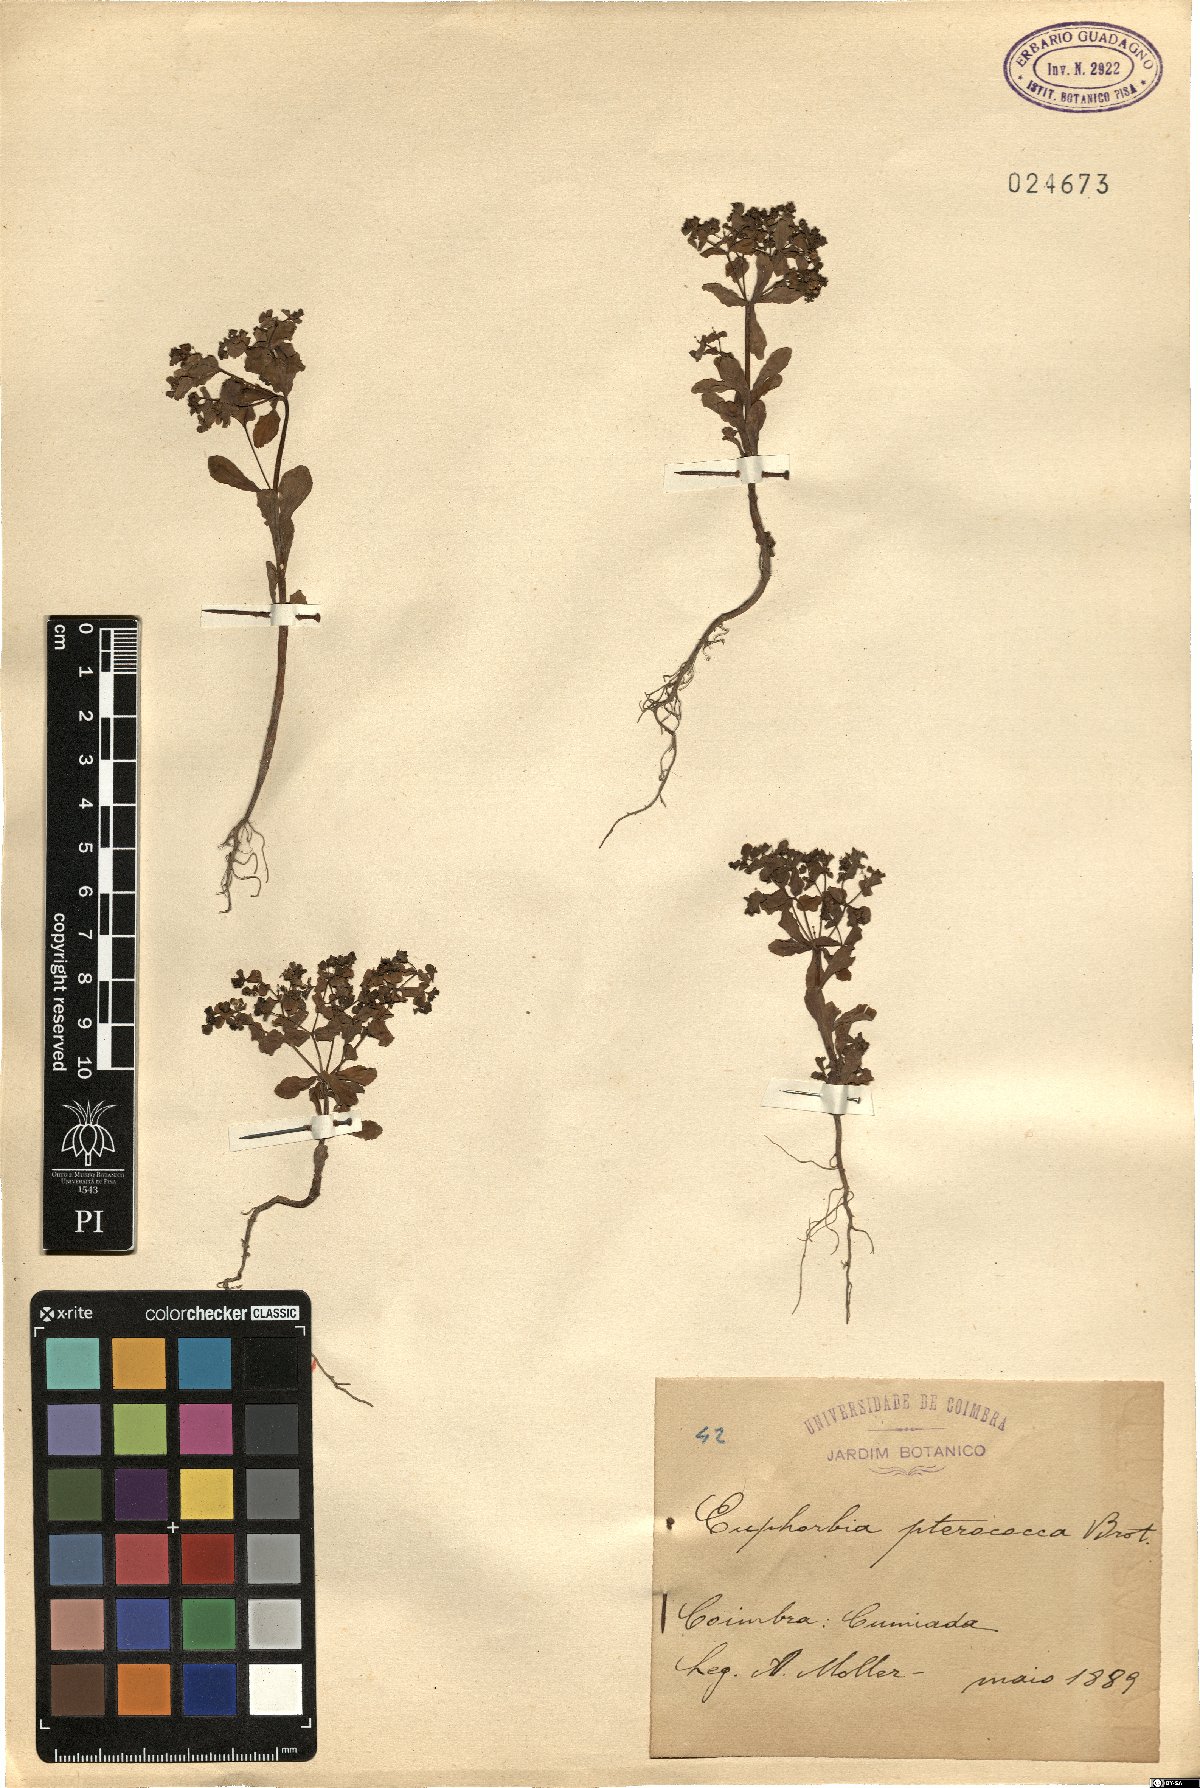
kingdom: Plantae
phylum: Tracheophyta
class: Magnoliopsida
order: Malpighiales
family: Euphorbiaceae
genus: Euphorbia
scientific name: Euphorbia pterococca
